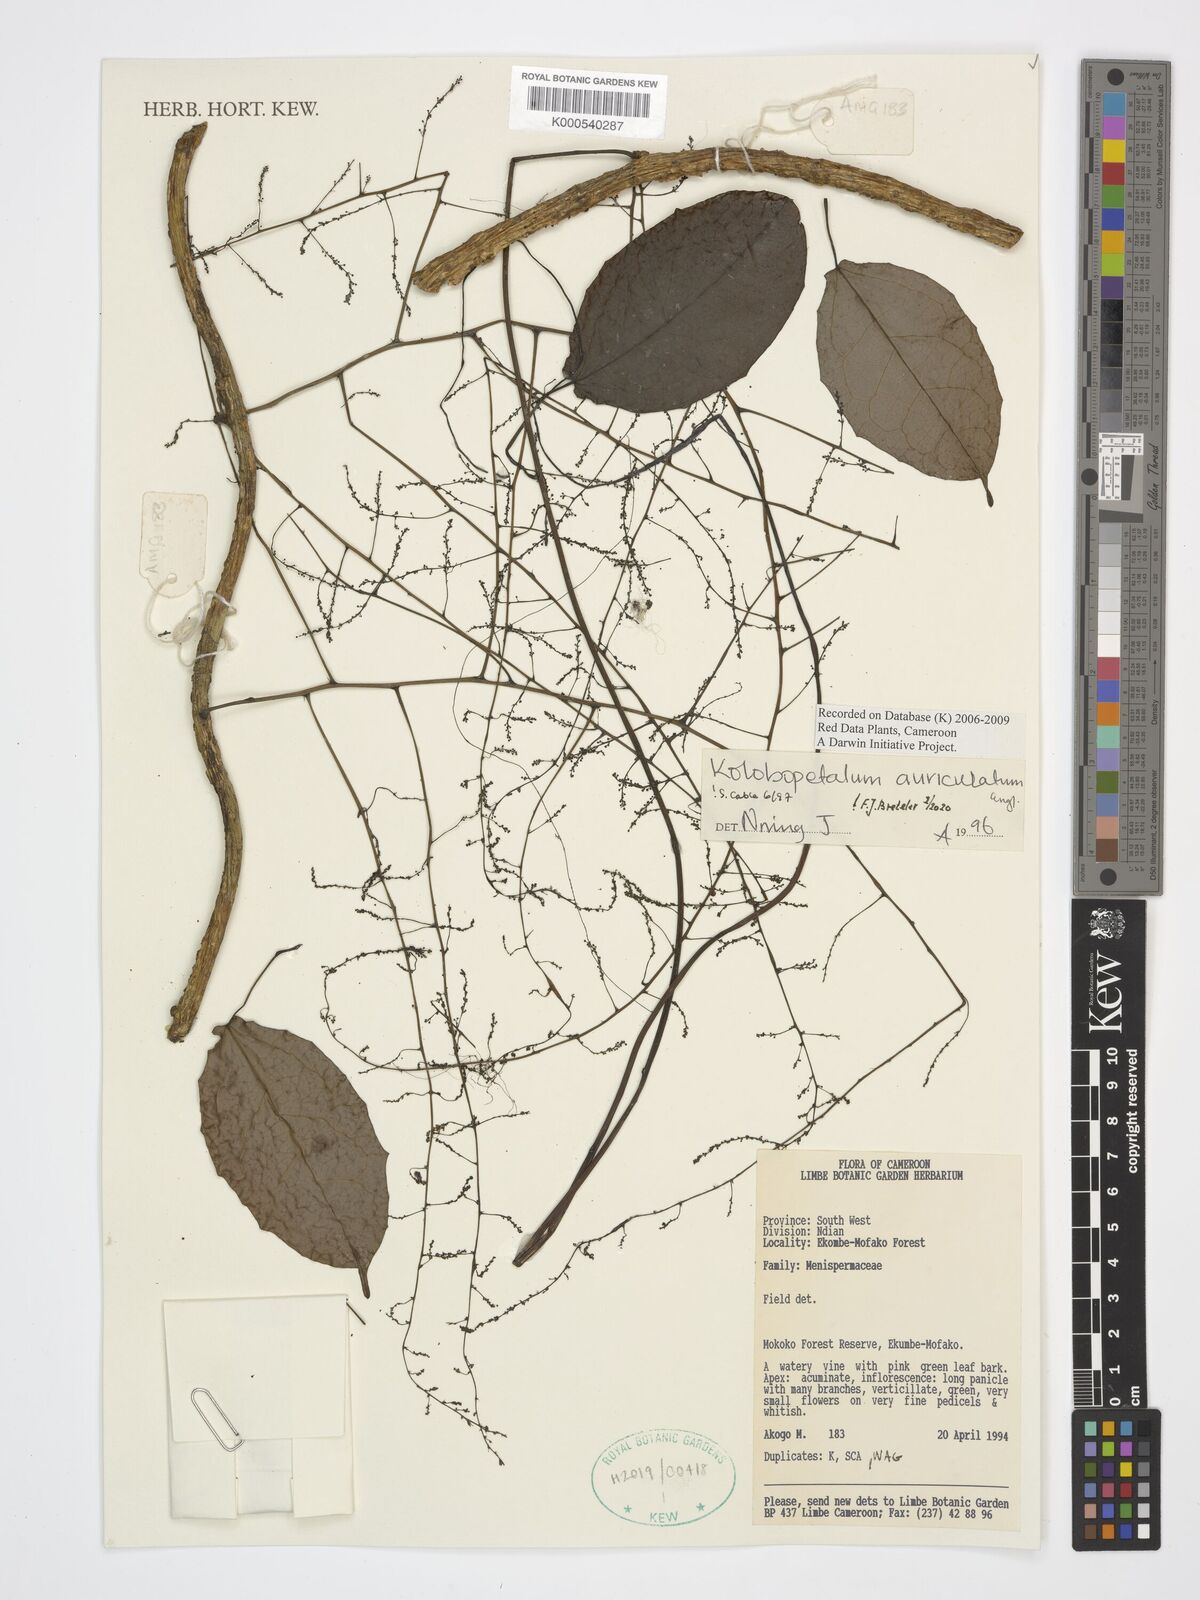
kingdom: Plantae
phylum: Tracheophyta
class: Magnoliopsida
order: Ranunculales
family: Menispermaceae
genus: Kolobopetalum
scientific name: Kolobopetalum auriculatum
